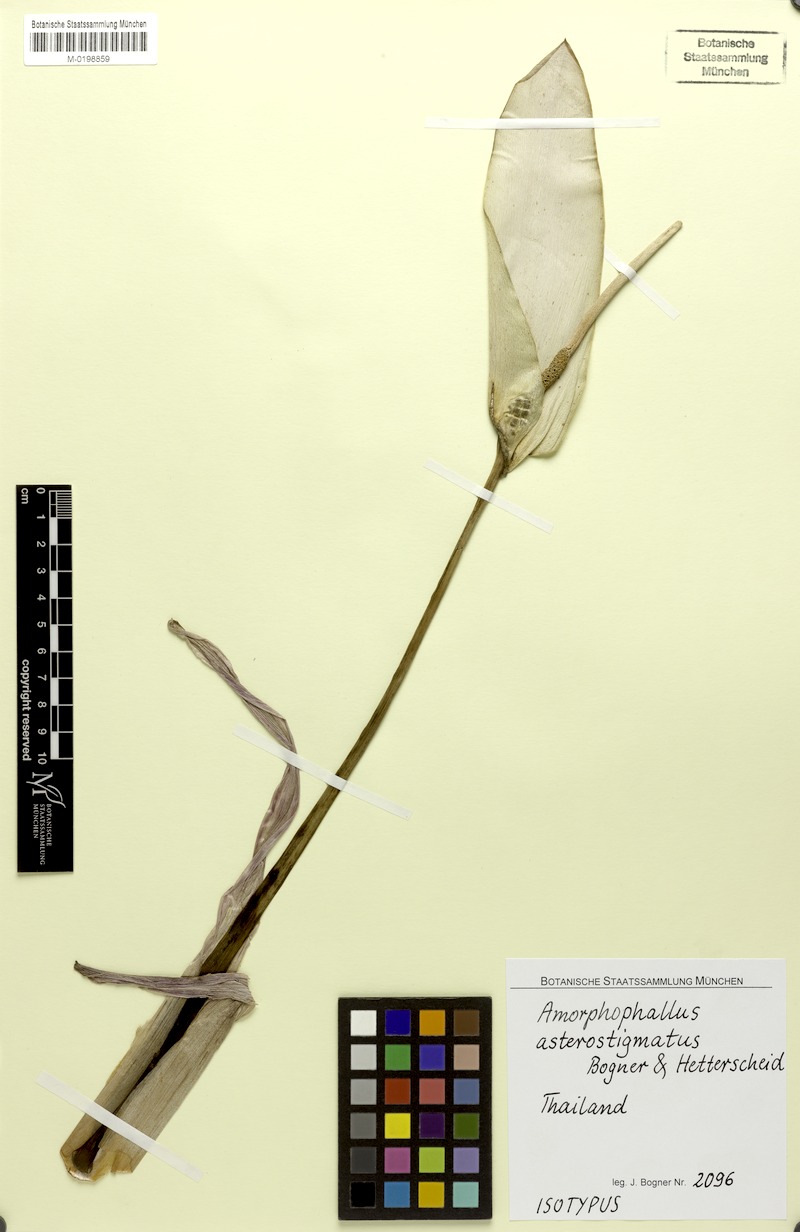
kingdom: Plantae
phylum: Tracheophyta
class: Liliopsida
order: Alismatales
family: Araceae
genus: Amorphophallus
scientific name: Amorphophallus asterostigmatus
